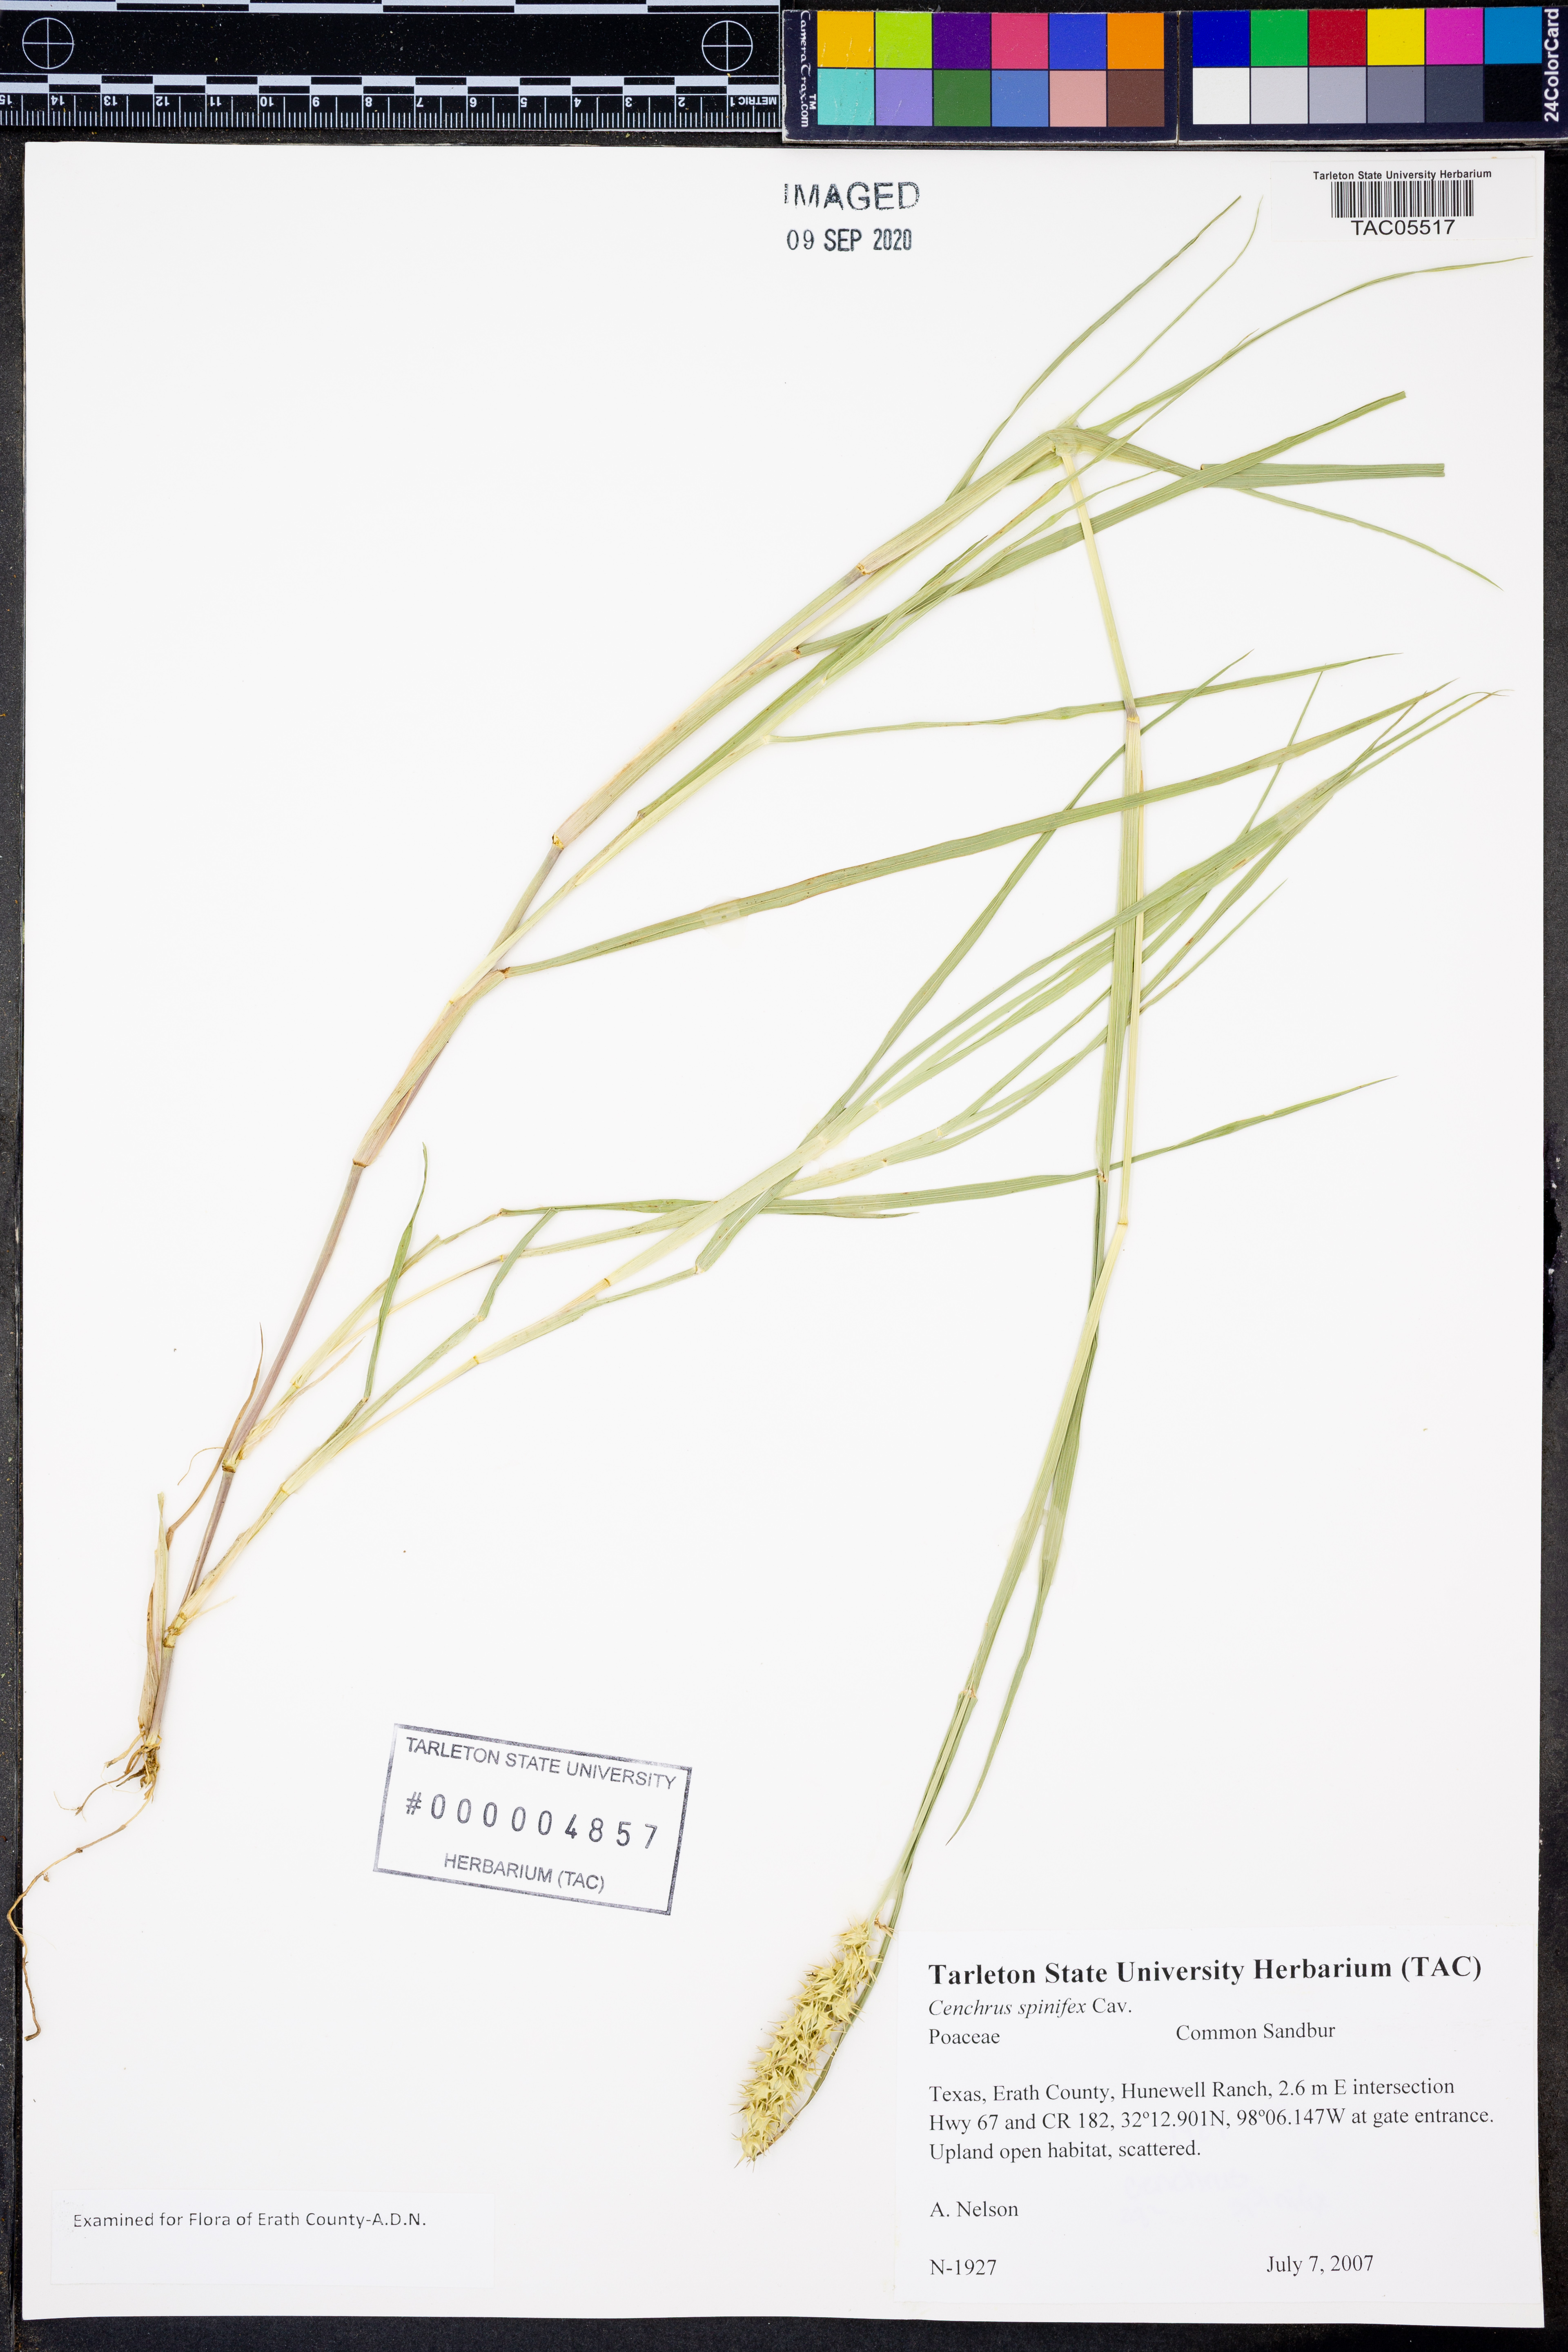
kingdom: Plantae
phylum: Tracheophyta
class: Liliopsida
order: Poales
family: Poaceae
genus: Cenchrus
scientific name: Cenchrus spinifex
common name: Coast sandbur
